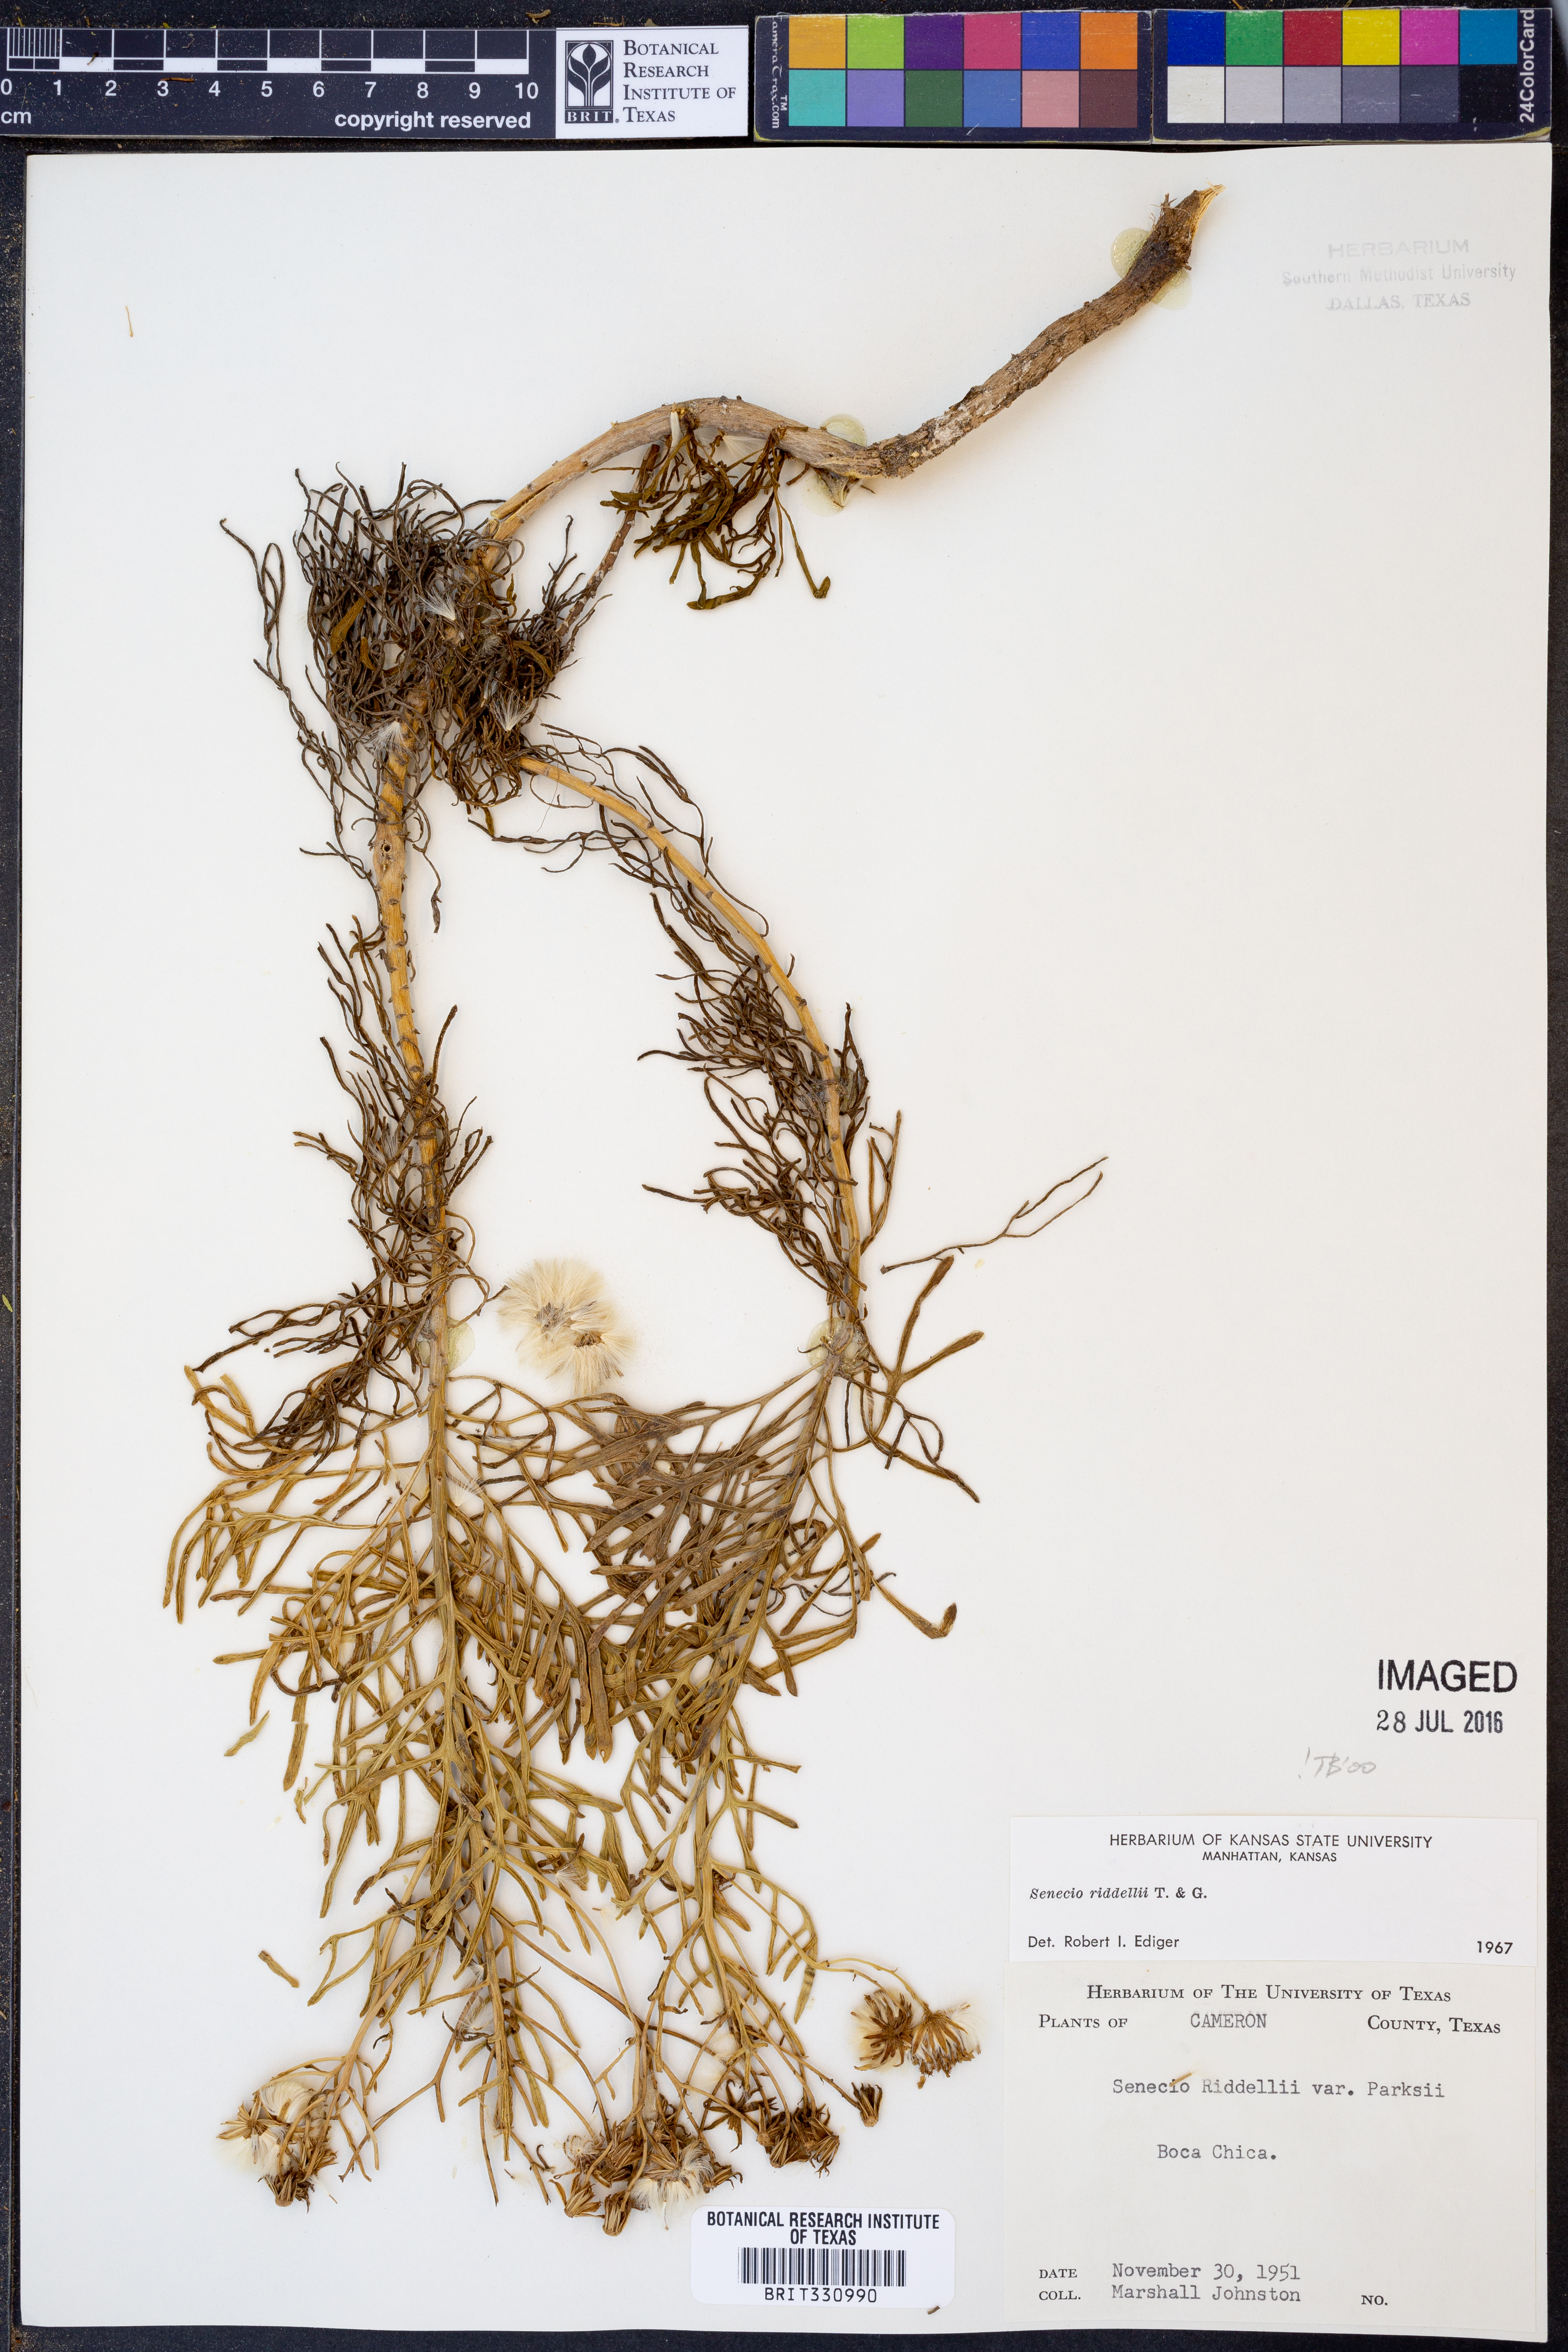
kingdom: Plantae
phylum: Tracheophyta
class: Magnoliopsida
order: Asterales
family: Asteraceae
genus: Senecio
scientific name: Senecio riddellii
